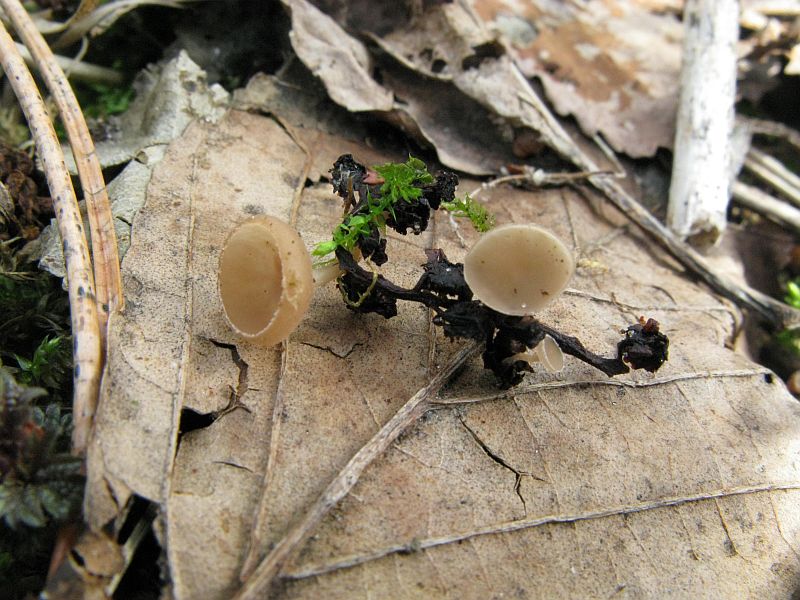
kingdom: Fungi
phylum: Ascomycota
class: Leotiomycetes
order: Helotiales
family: Sclerotiniaceae
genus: Ciboria
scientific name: Ciboria amentacea
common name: ellerakle-knoldskive
